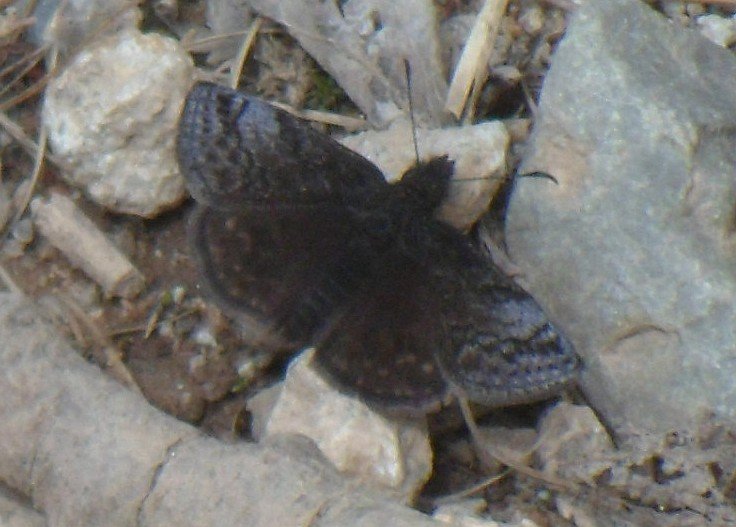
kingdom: Animalia
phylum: Arthropoda
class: Insecta
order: Lepidoptera
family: Hesperiidae
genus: Erynnis
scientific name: Erynnis icelus
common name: Dreamy Duskywing
